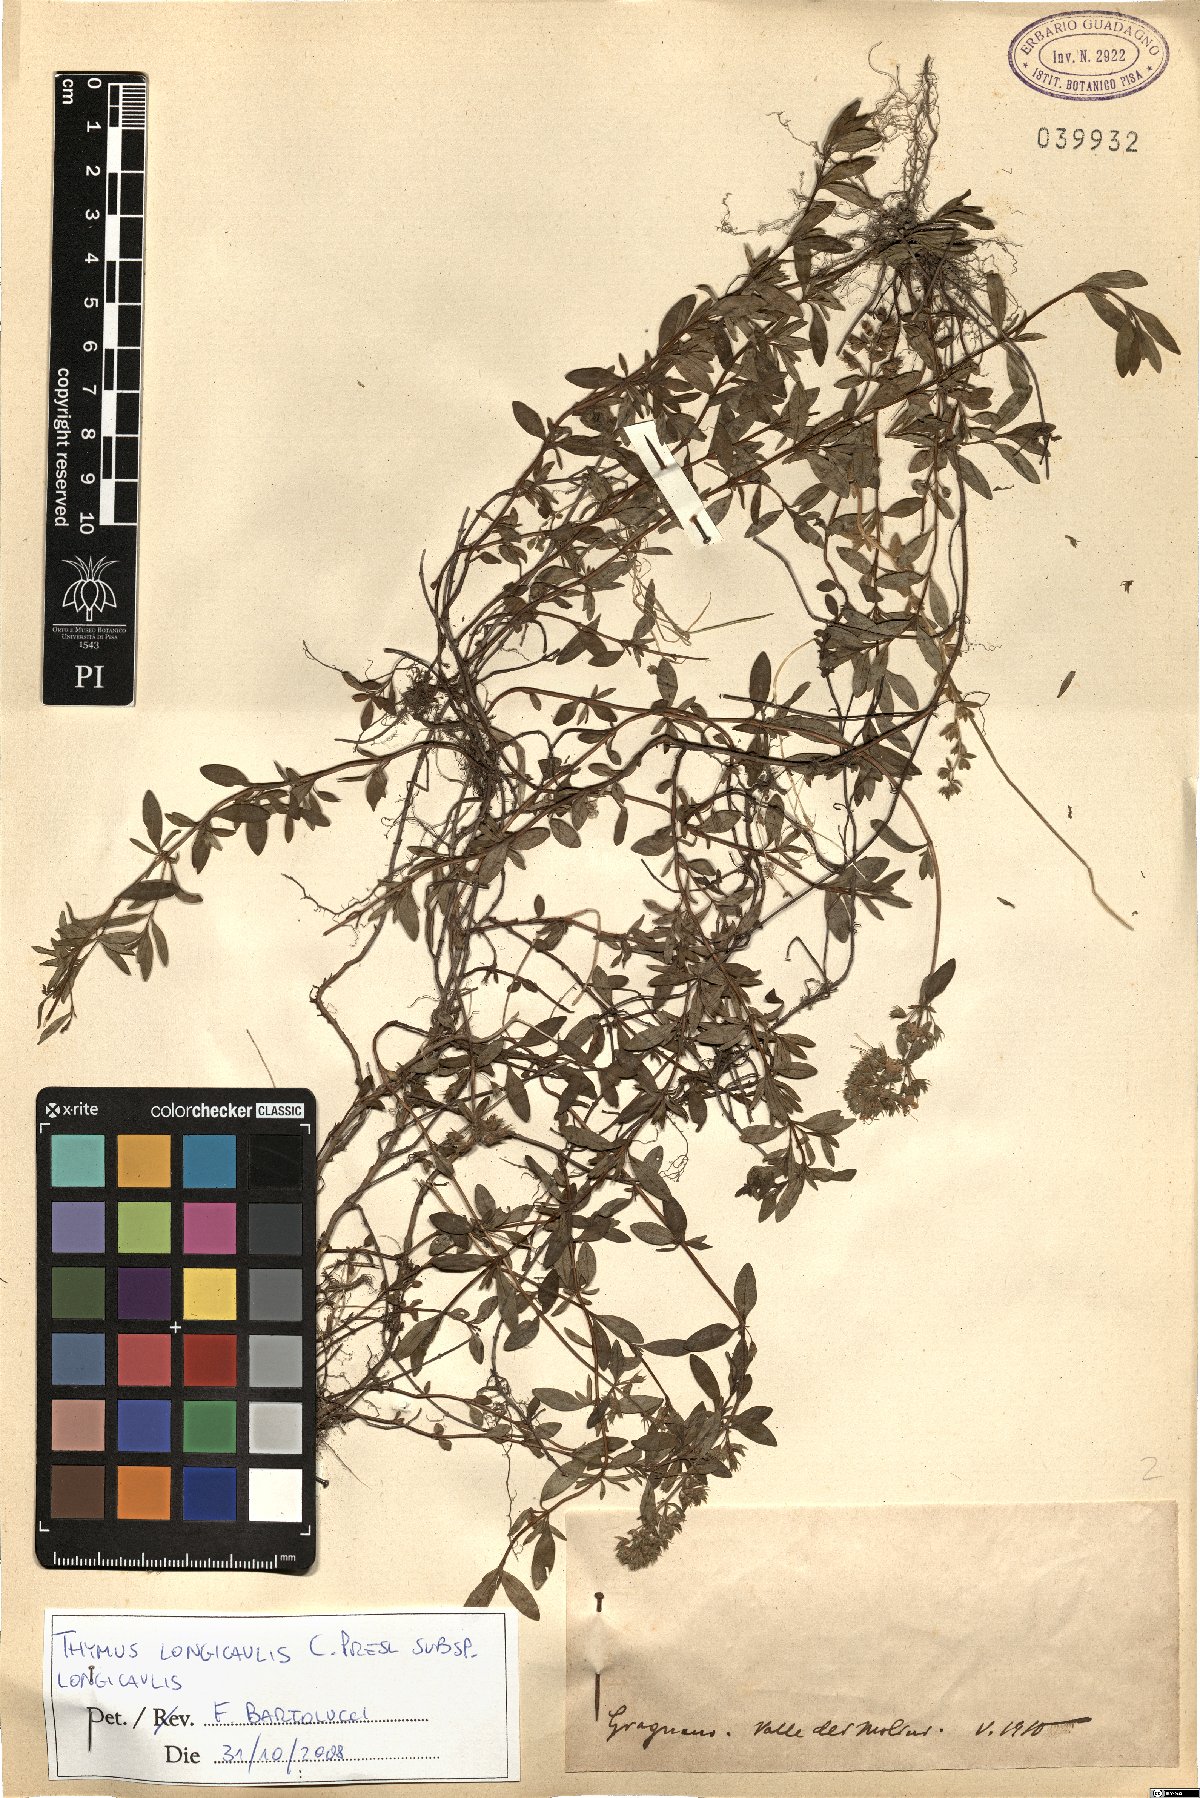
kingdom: Plantae
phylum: Tracheophyta
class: Magnoliopsida
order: Lamiales
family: Lamiaceae
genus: Thymus
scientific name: Thymus longicaulis
